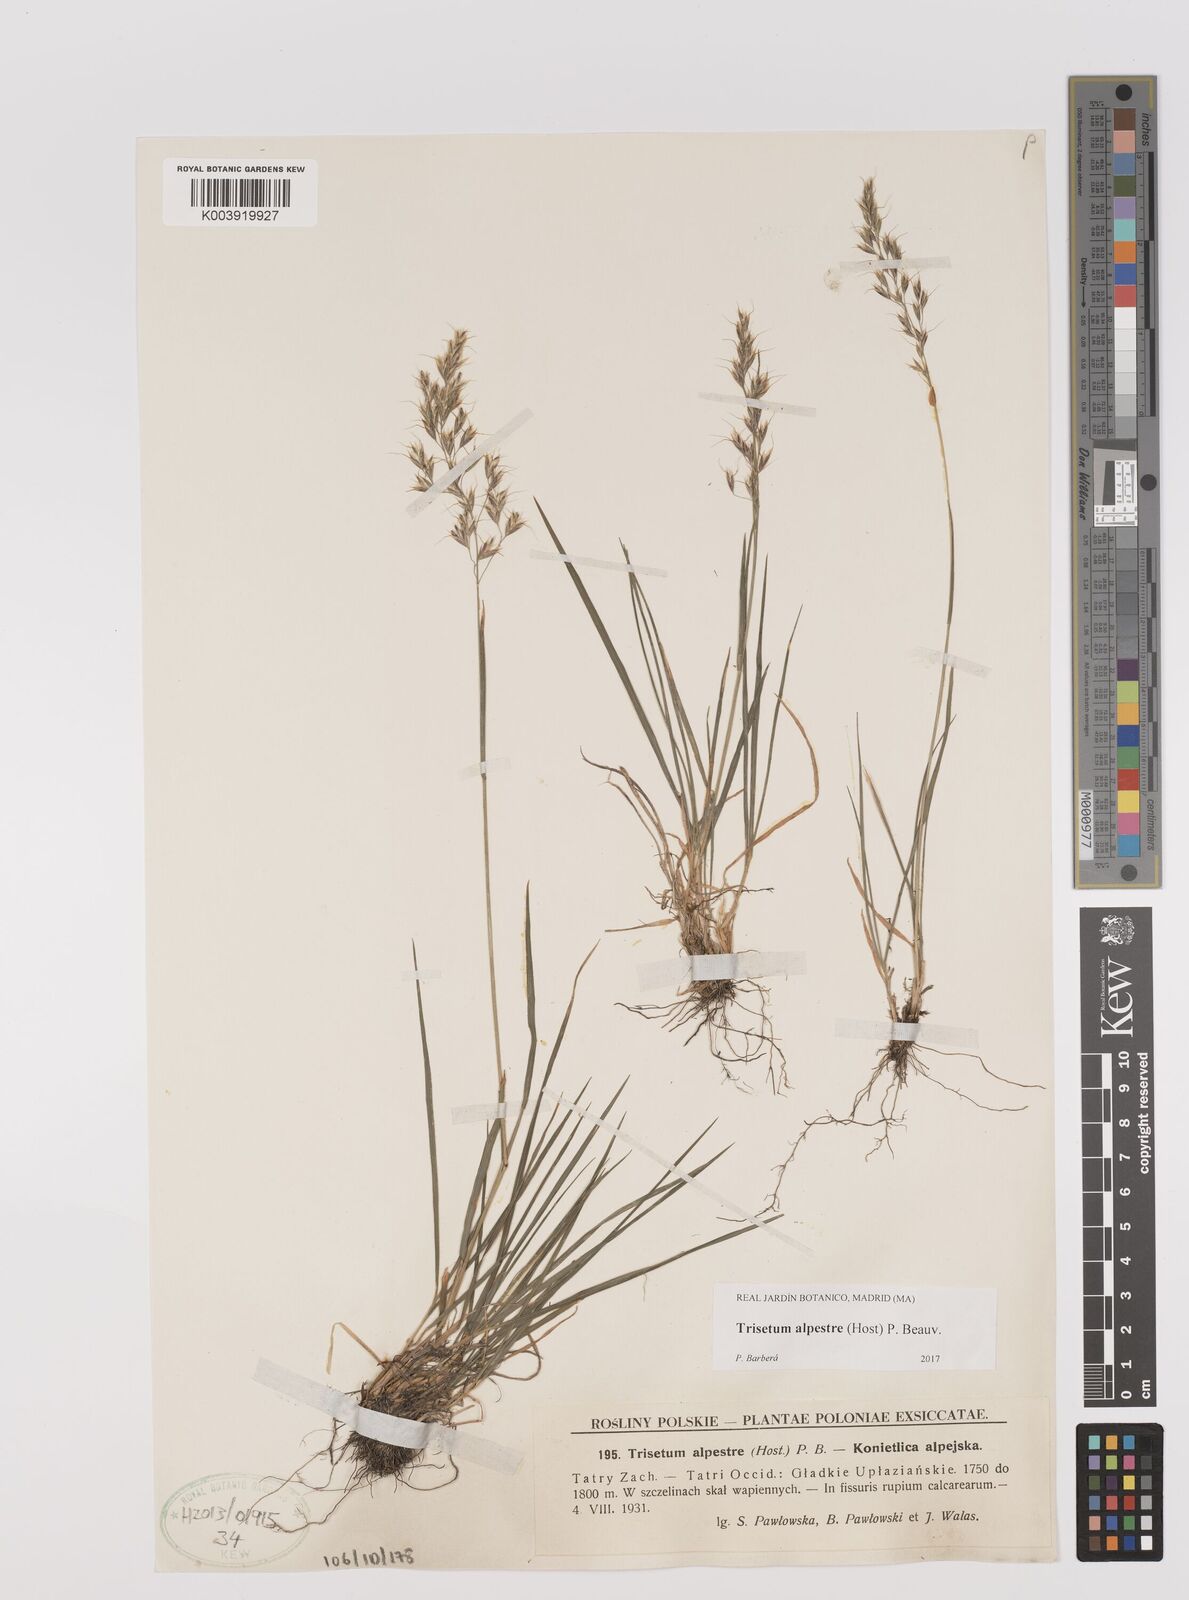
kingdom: Plantae
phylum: Tracheophyta
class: Liliopsida
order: Poales
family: Poaceae
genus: Trisetum
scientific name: Trisetum alpestre
